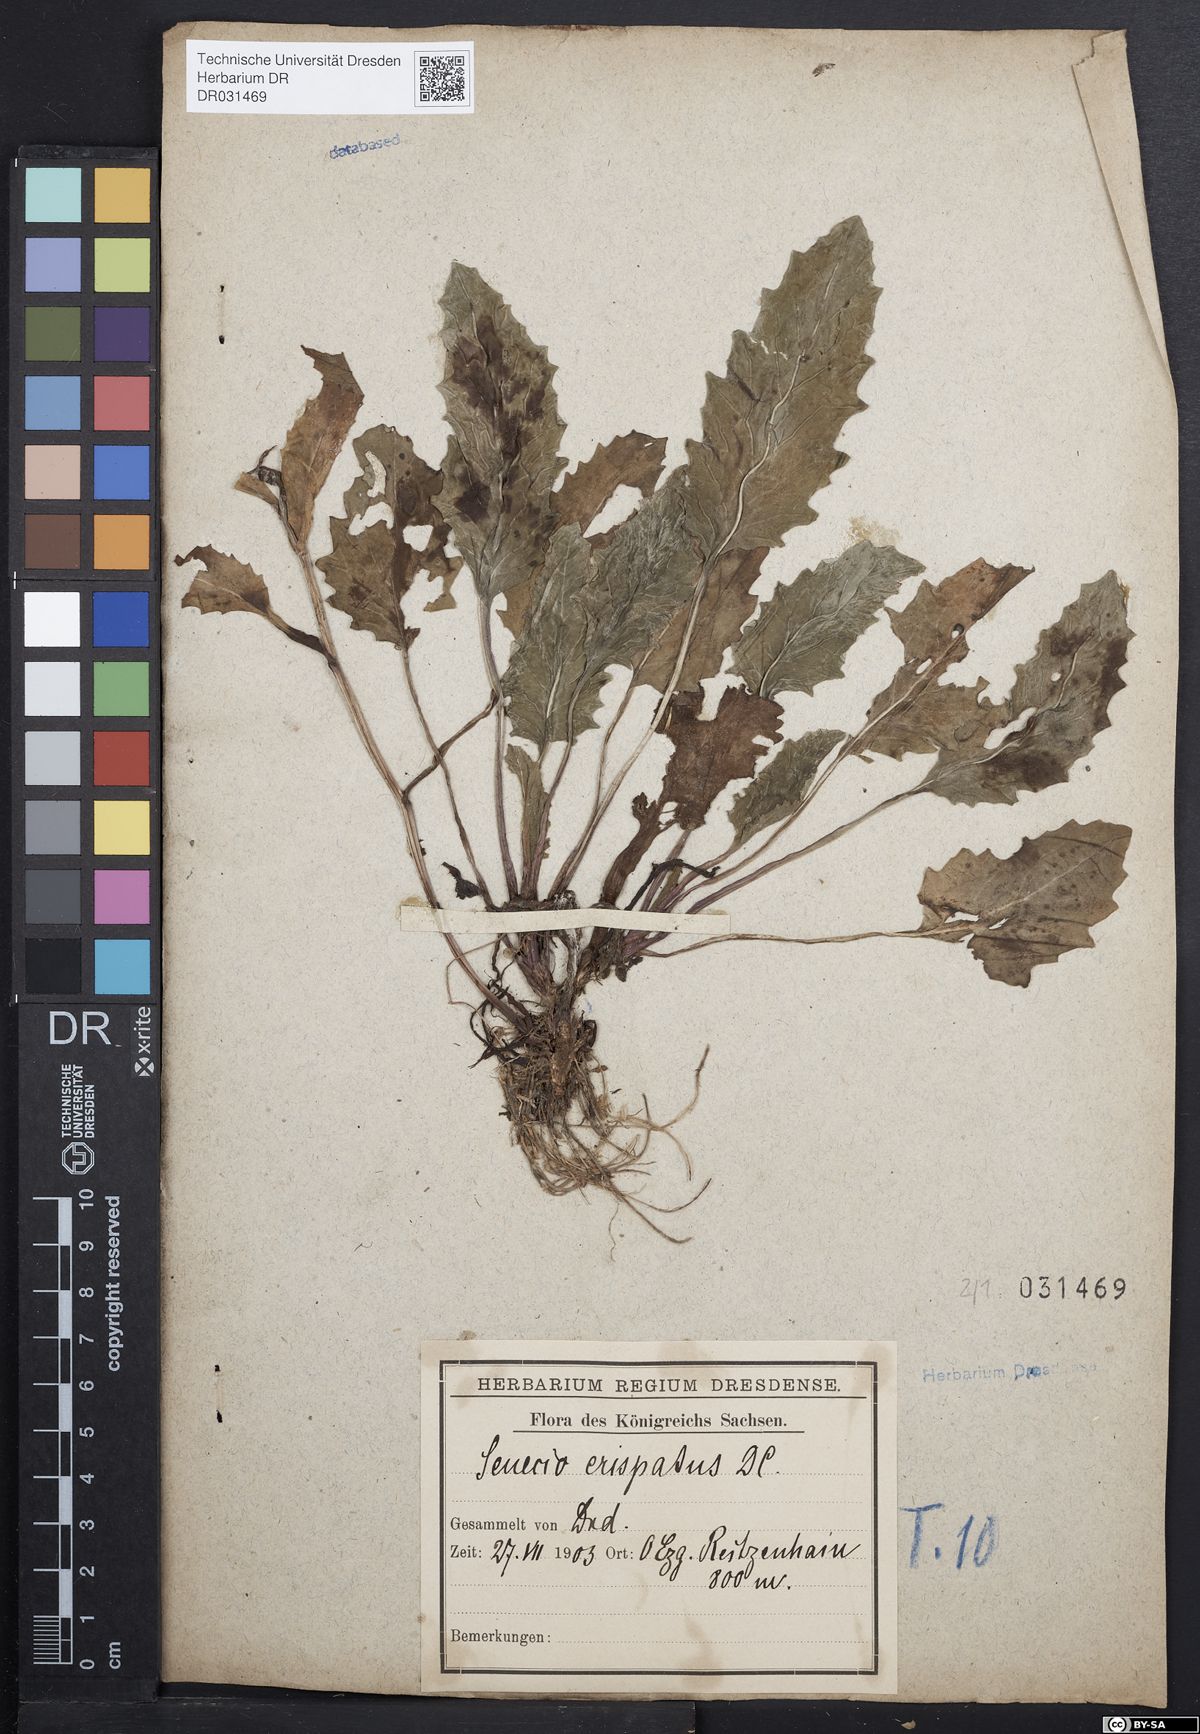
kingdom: Plantae
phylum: Tracheophyta
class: Magnoliopsida
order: Asterales
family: Asteraceae
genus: Tephroseris
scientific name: Tephroseris crispa
